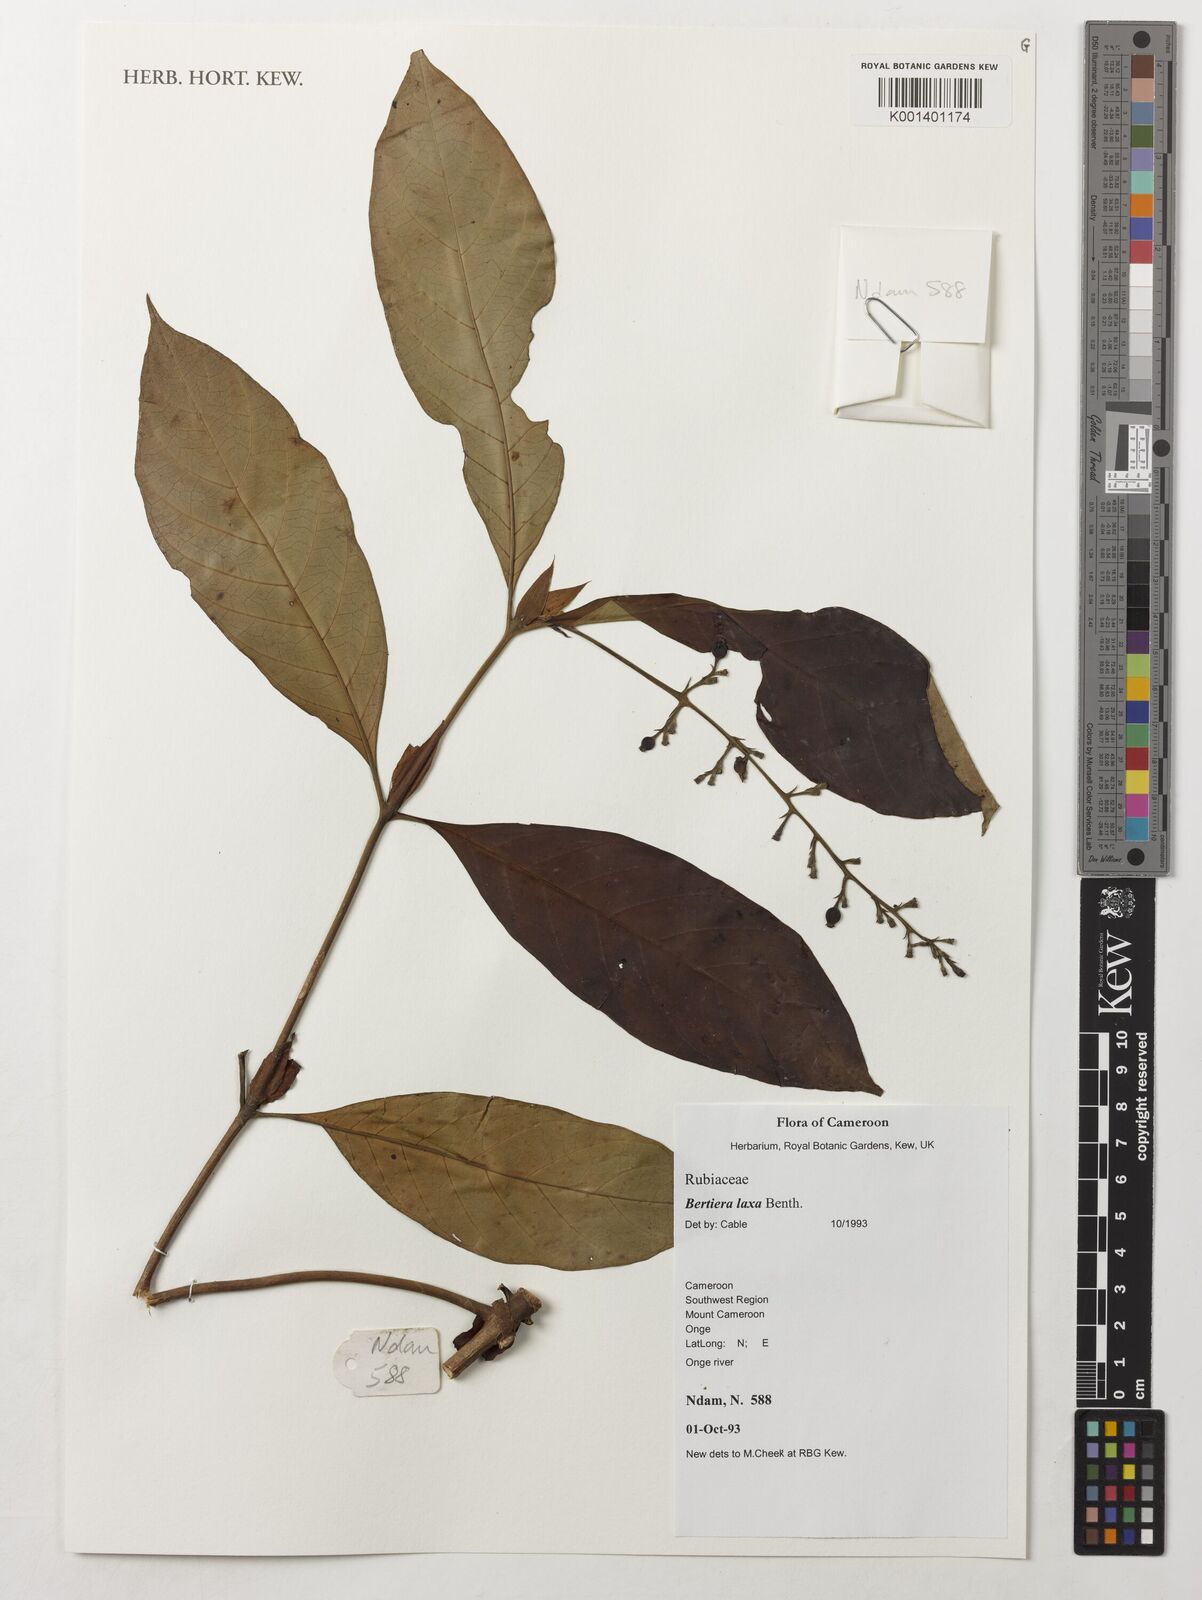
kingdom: Plantae
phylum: Tracheophyta
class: Magnoliopsida
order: Gentianales
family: Rubiaceae
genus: Bertiera
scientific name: Bertiera laxa
